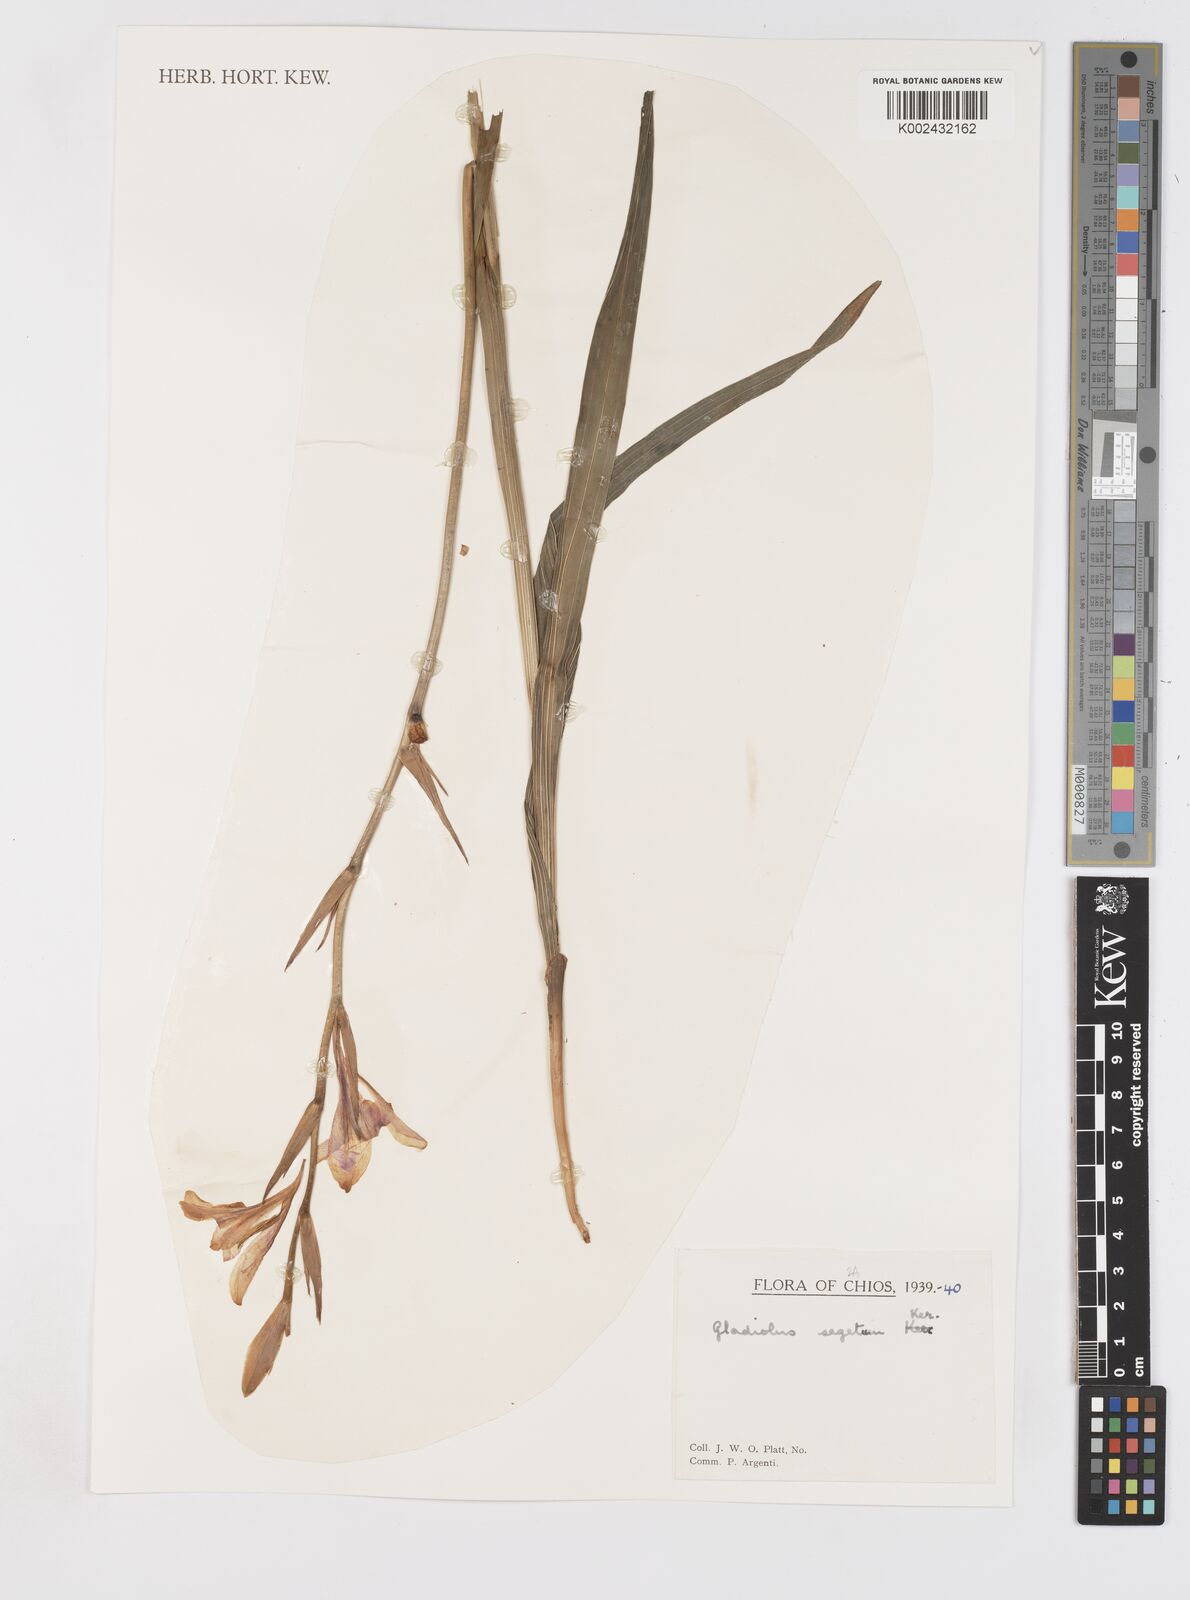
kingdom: Plantae
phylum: Tracheophyta
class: Liliopsida
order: Asparagales
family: Iridaceae
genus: Gladiolus
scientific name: Gladiolus italicus
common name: Field gladiolus
